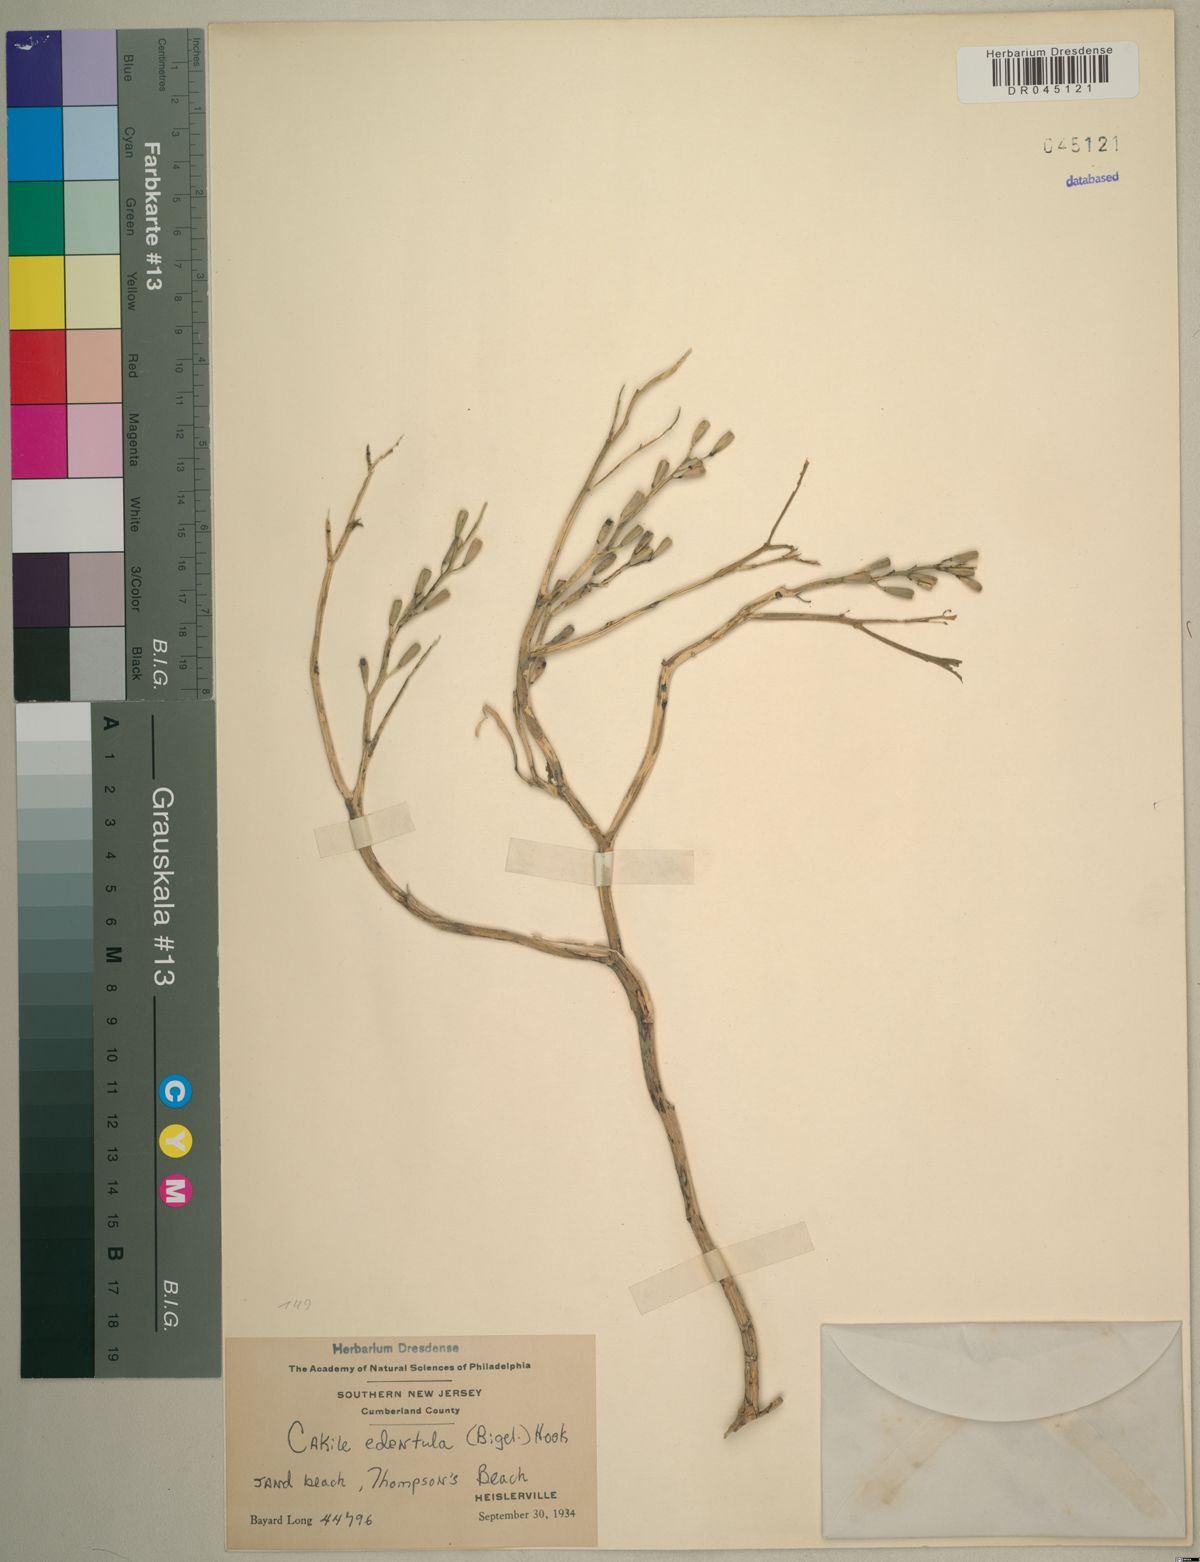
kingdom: Plantae
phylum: Tracheophyta
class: Magnoliopsida
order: Brassicales
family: Brassicaceae
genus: Cakile
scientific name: Cakile edentula
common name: American sea rocket
